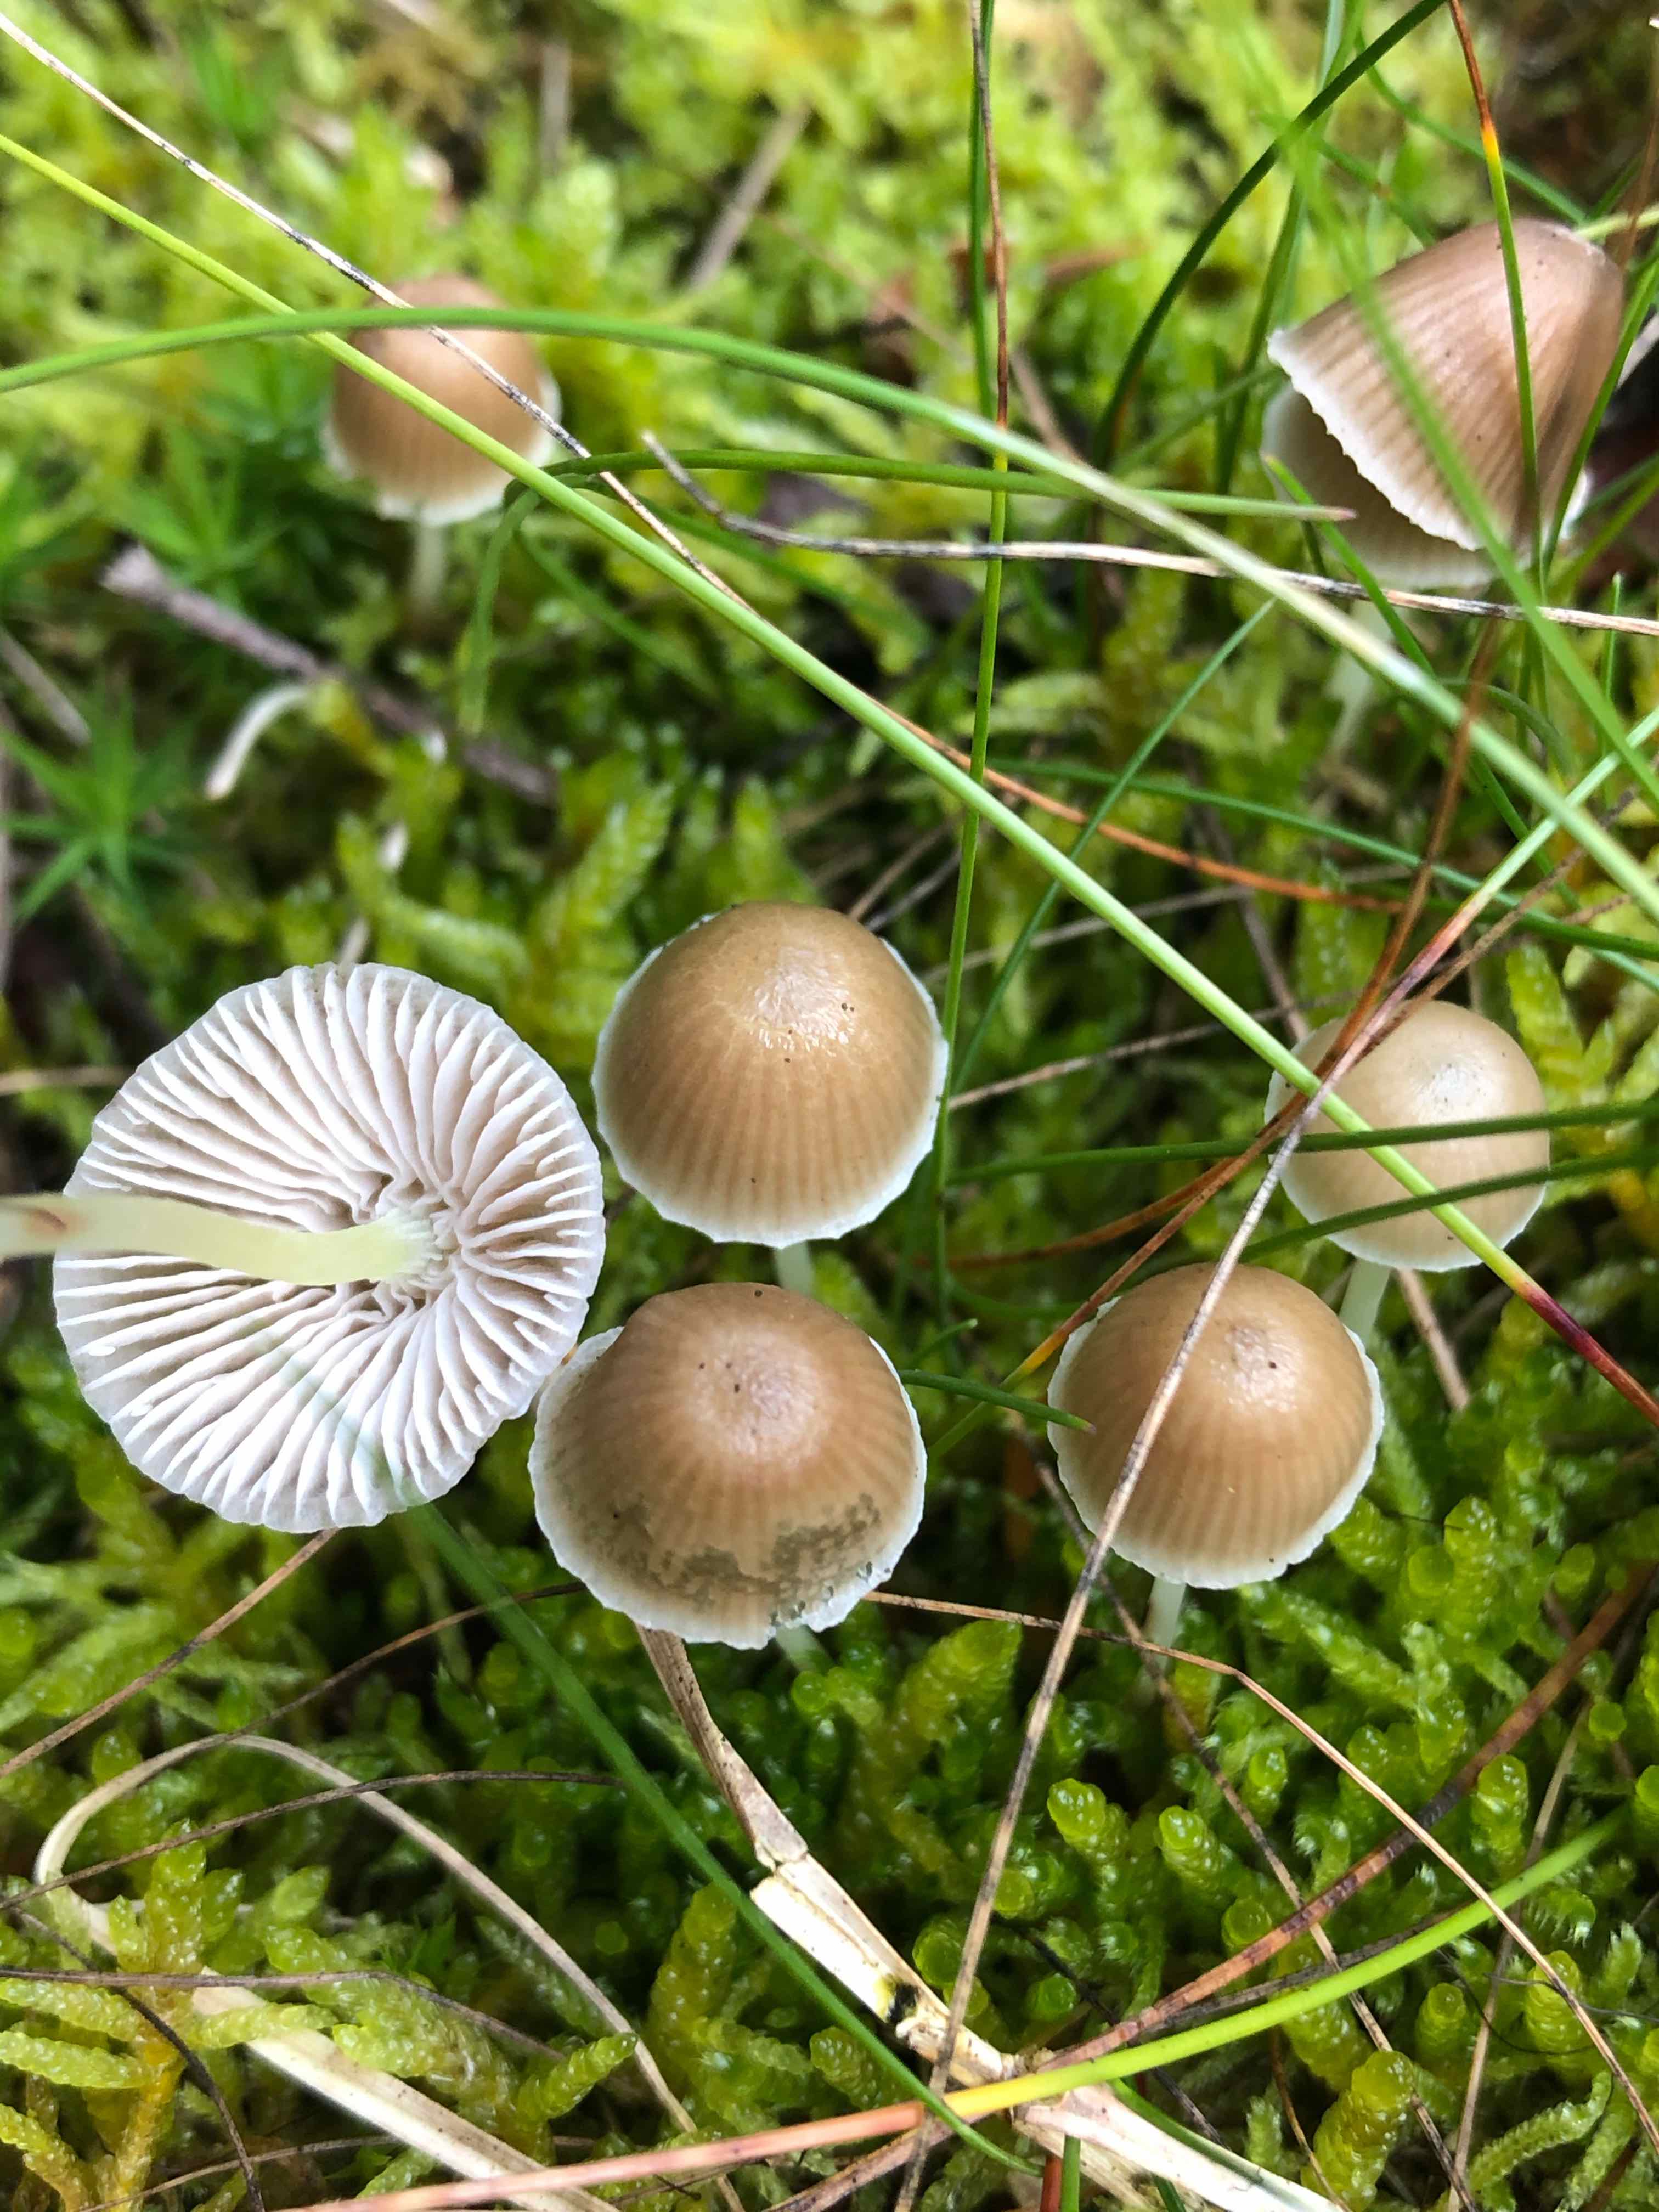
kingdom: Fungi
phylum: Basidiomycota
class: Agaricomycetes
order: Agaricales
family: Mycenaceae
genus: Mycena
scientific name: Mycena epipterygia
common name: gulstokket huesvamp
